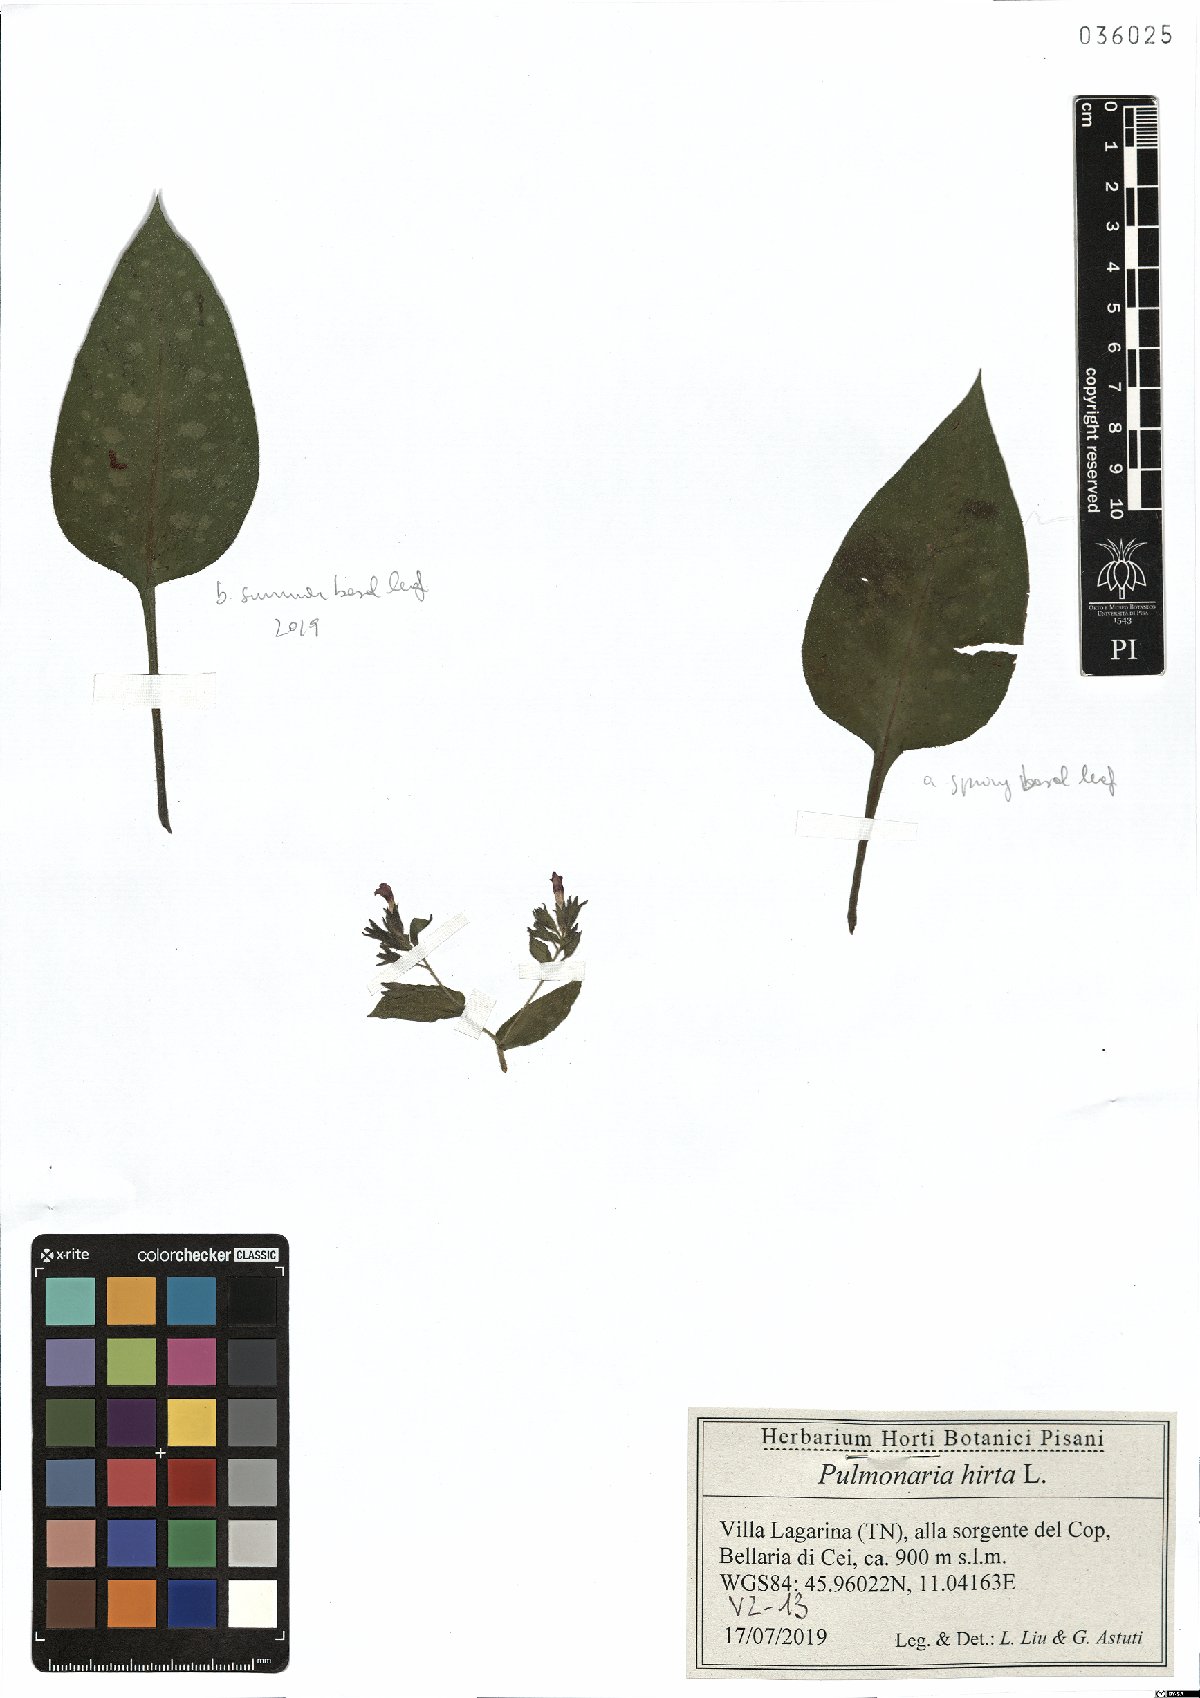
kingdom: Plantae
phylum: Tracheophyta
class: Magnoliopsida
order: Boraginales
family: Boraginaceae
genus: Pulmonaria
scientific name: Pulmonaria hirta
